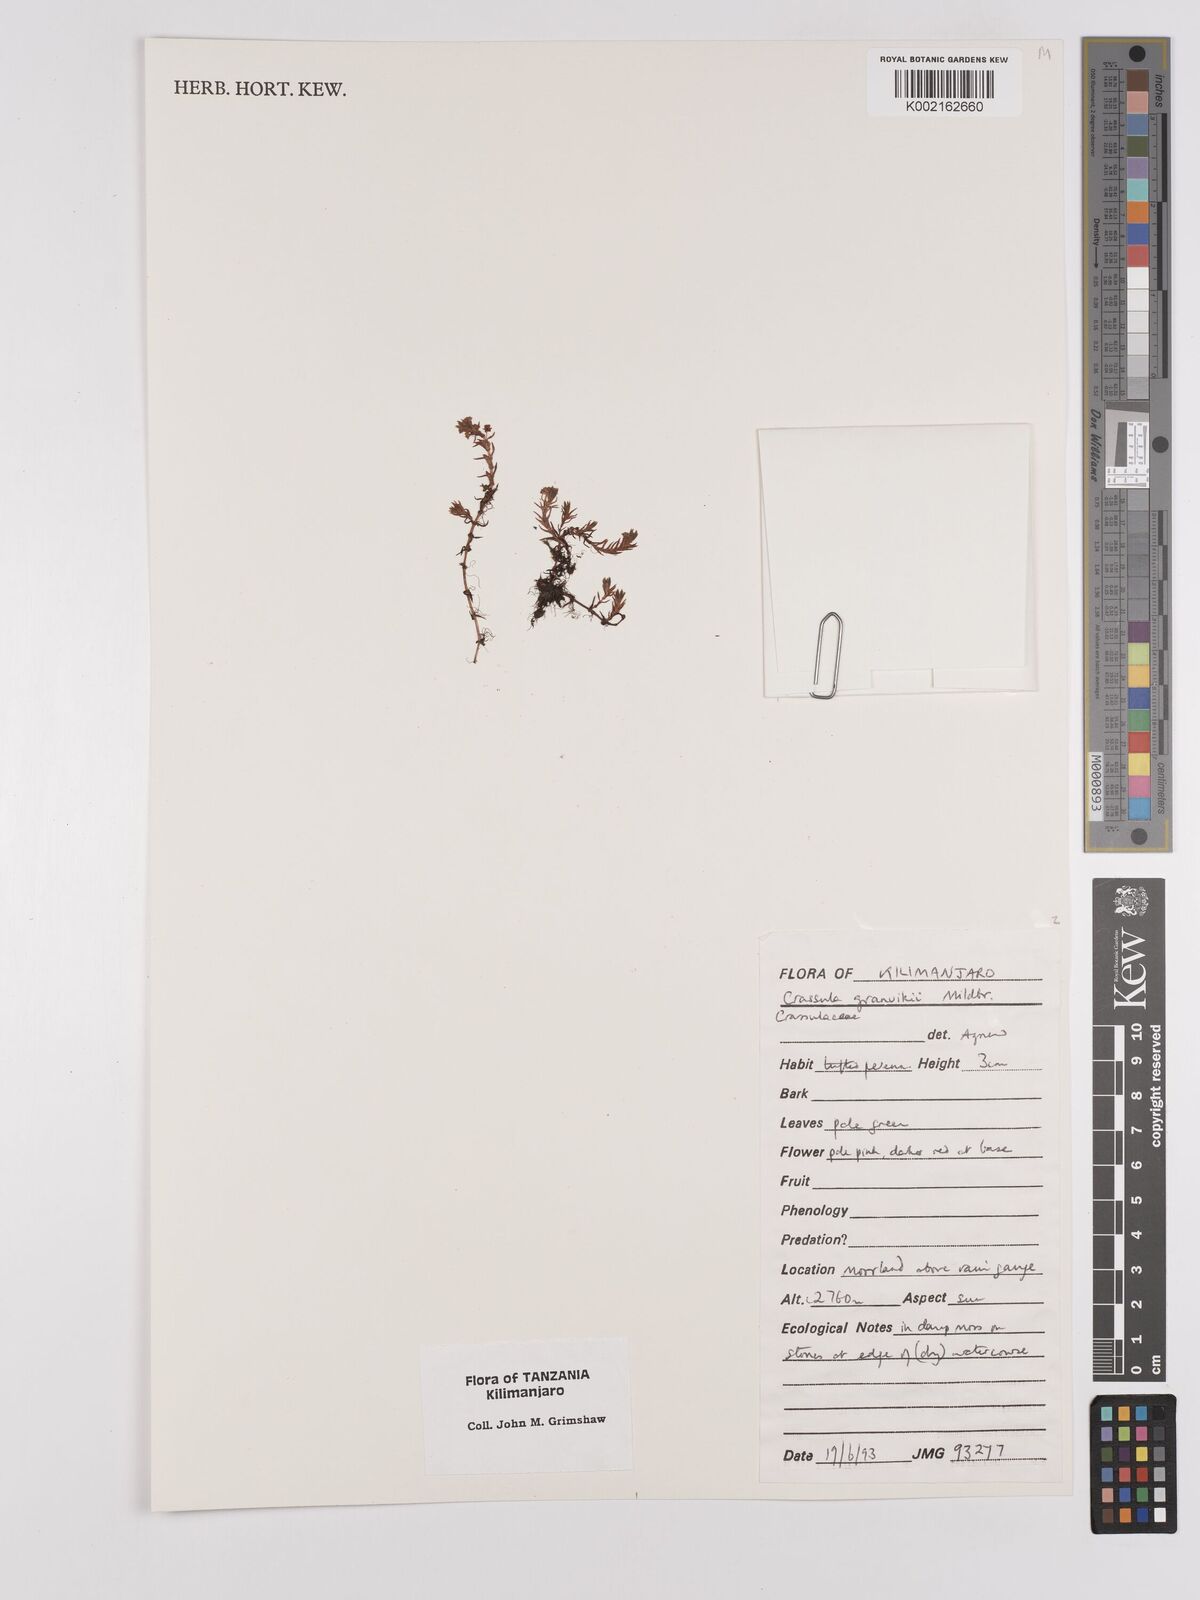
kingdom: Plantae
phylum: Tracheophyta
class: Magnoliopsida
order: Saxifragales
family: Crassulaceae
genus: Crassula
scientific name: Crassula granvikii
